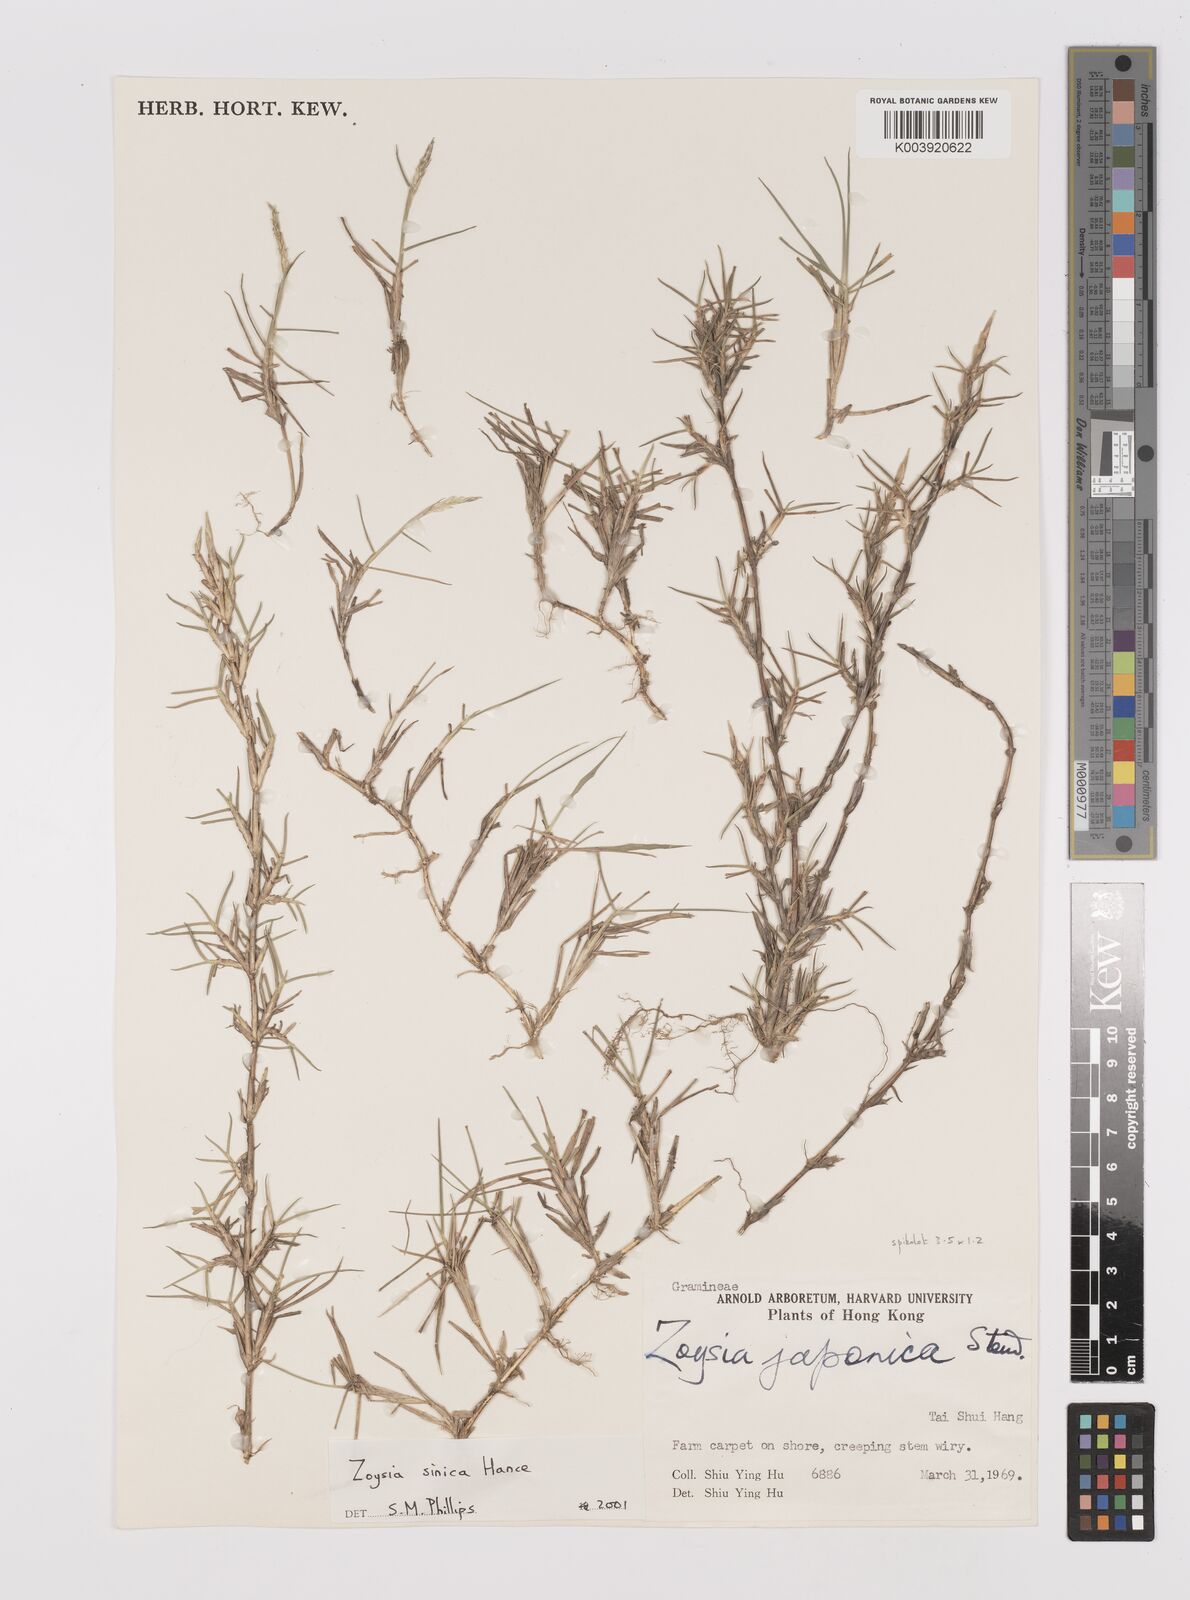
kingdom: Plantae
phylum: Tracheophyta
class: Liliopsida
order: Poales
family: Poaceae
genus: Zoysia
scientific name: Zoysia sinica
